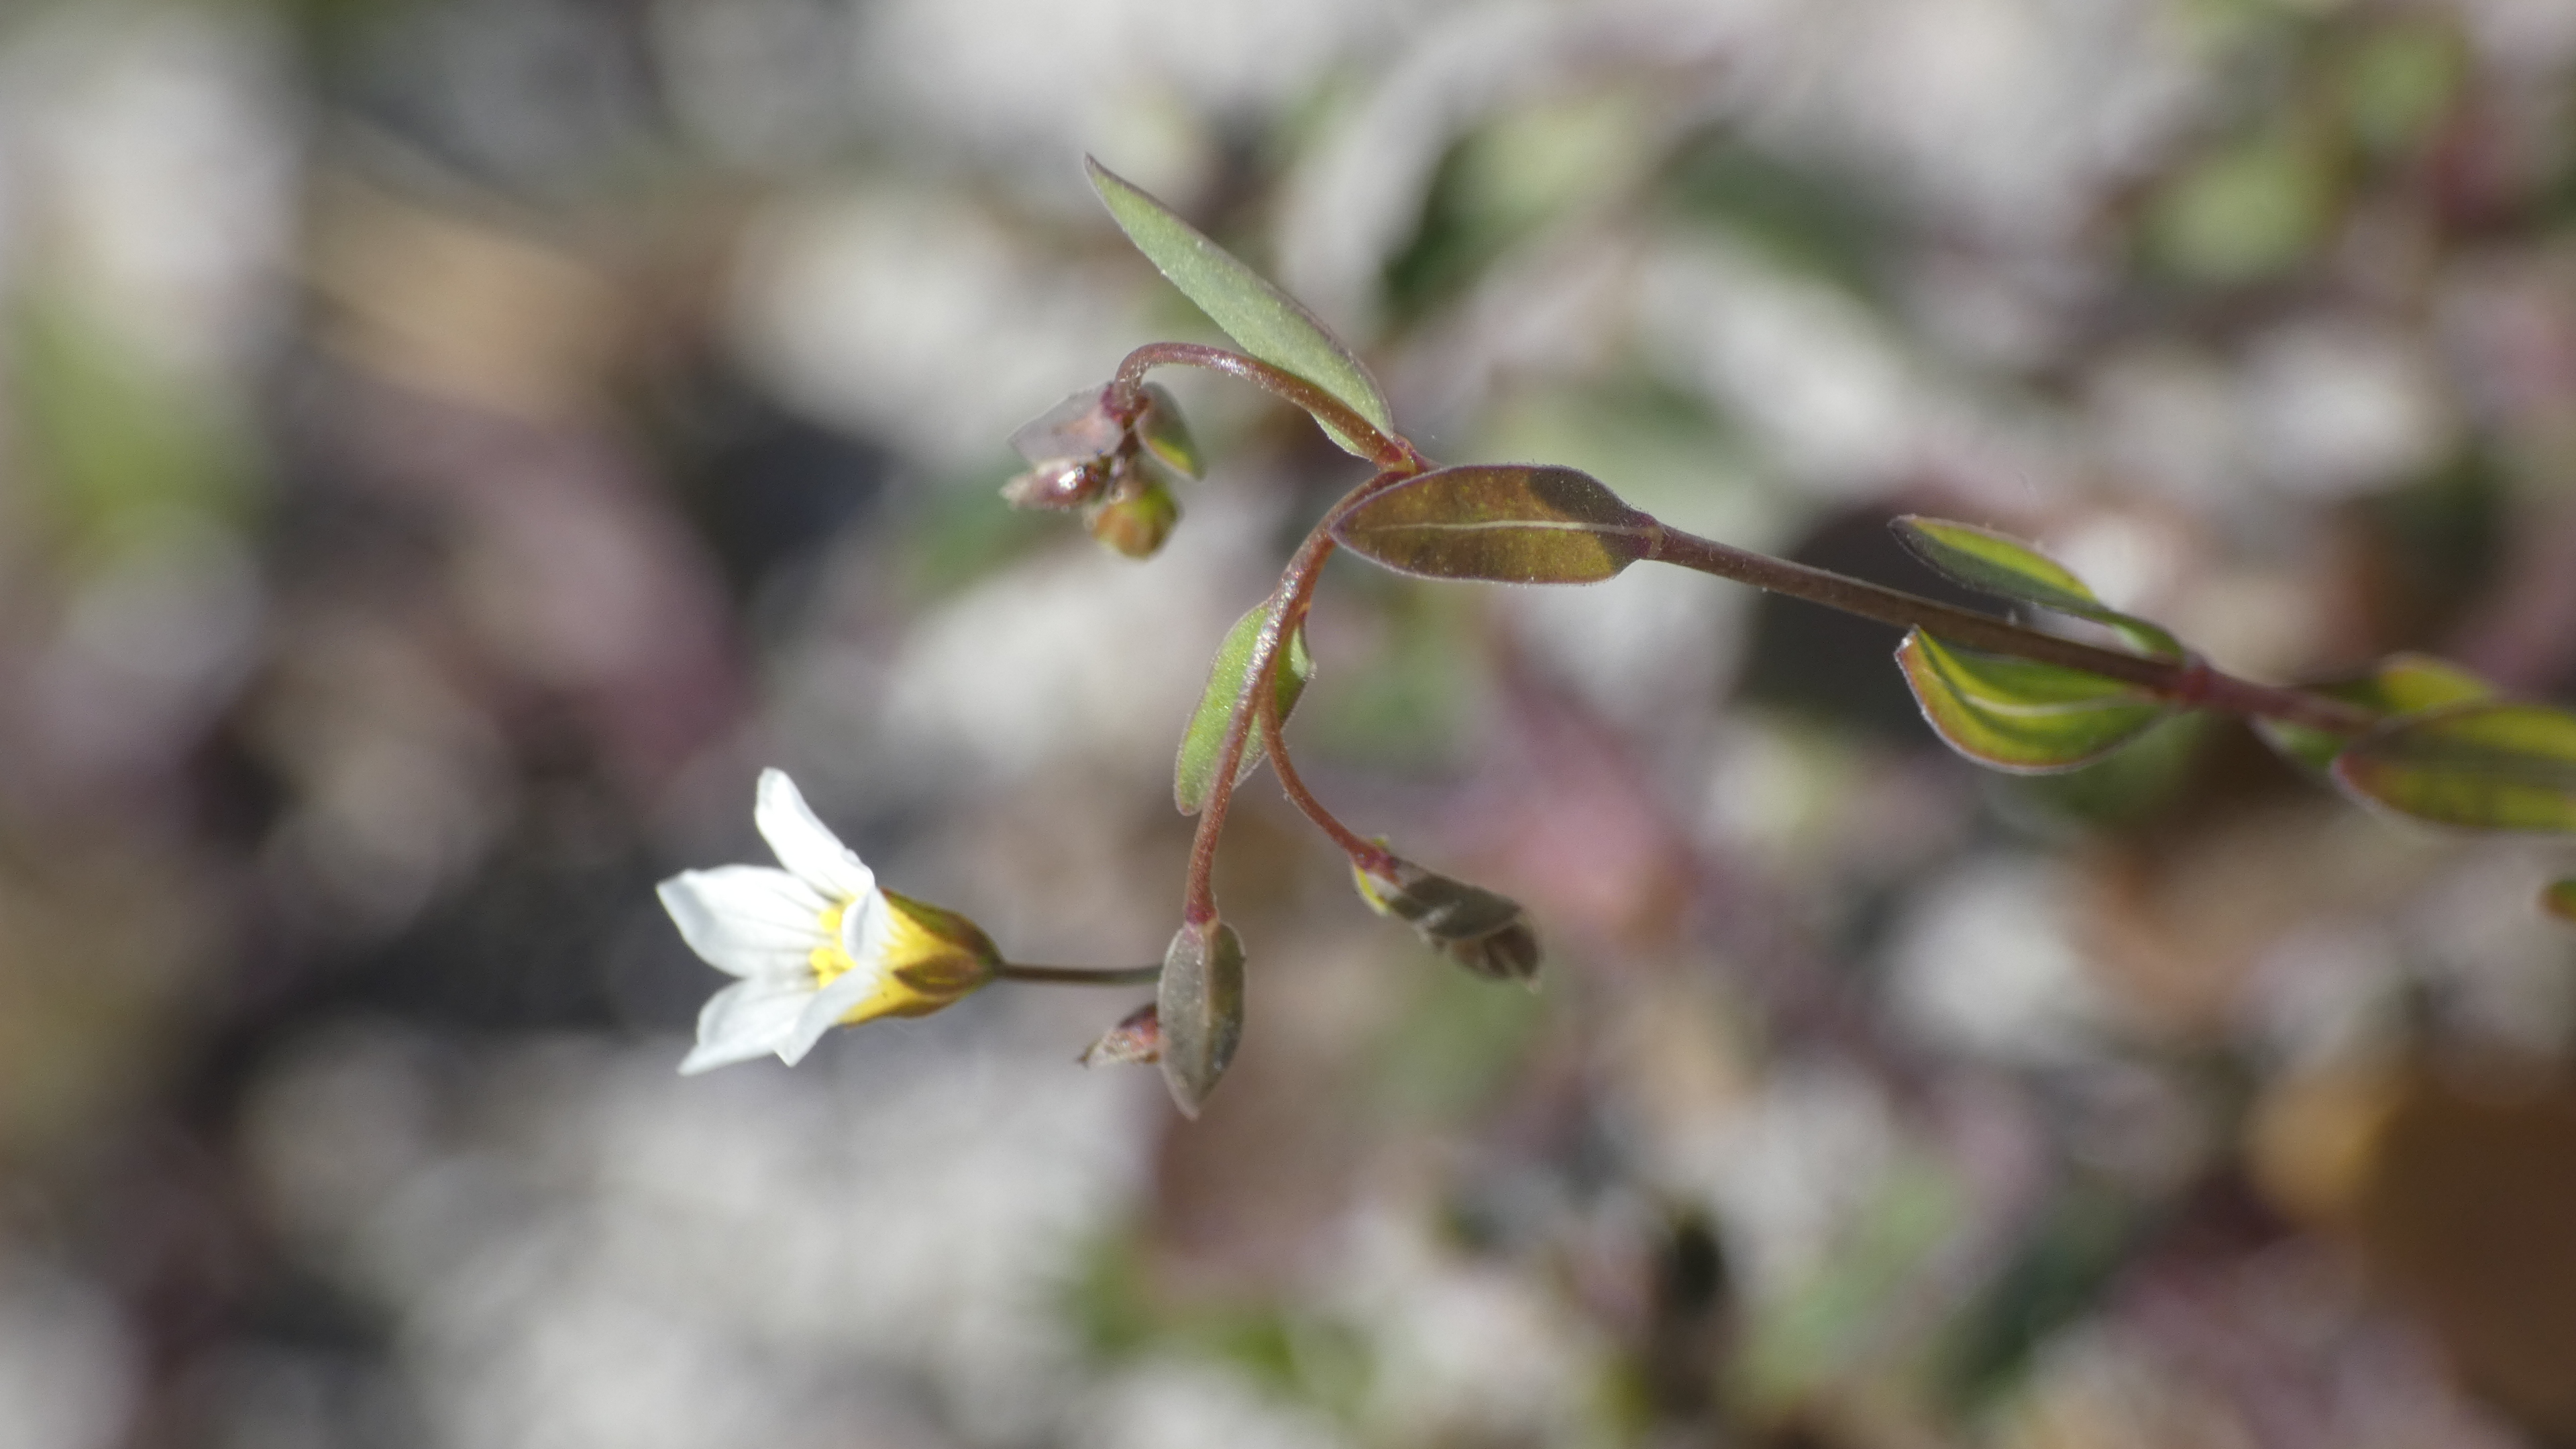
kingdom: Plantae
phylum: Tracheophyta
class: Magnoliopsida
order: Malpighiales
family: Linaceae
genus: Linum
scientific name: Linum catharticum
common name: Vild hør
